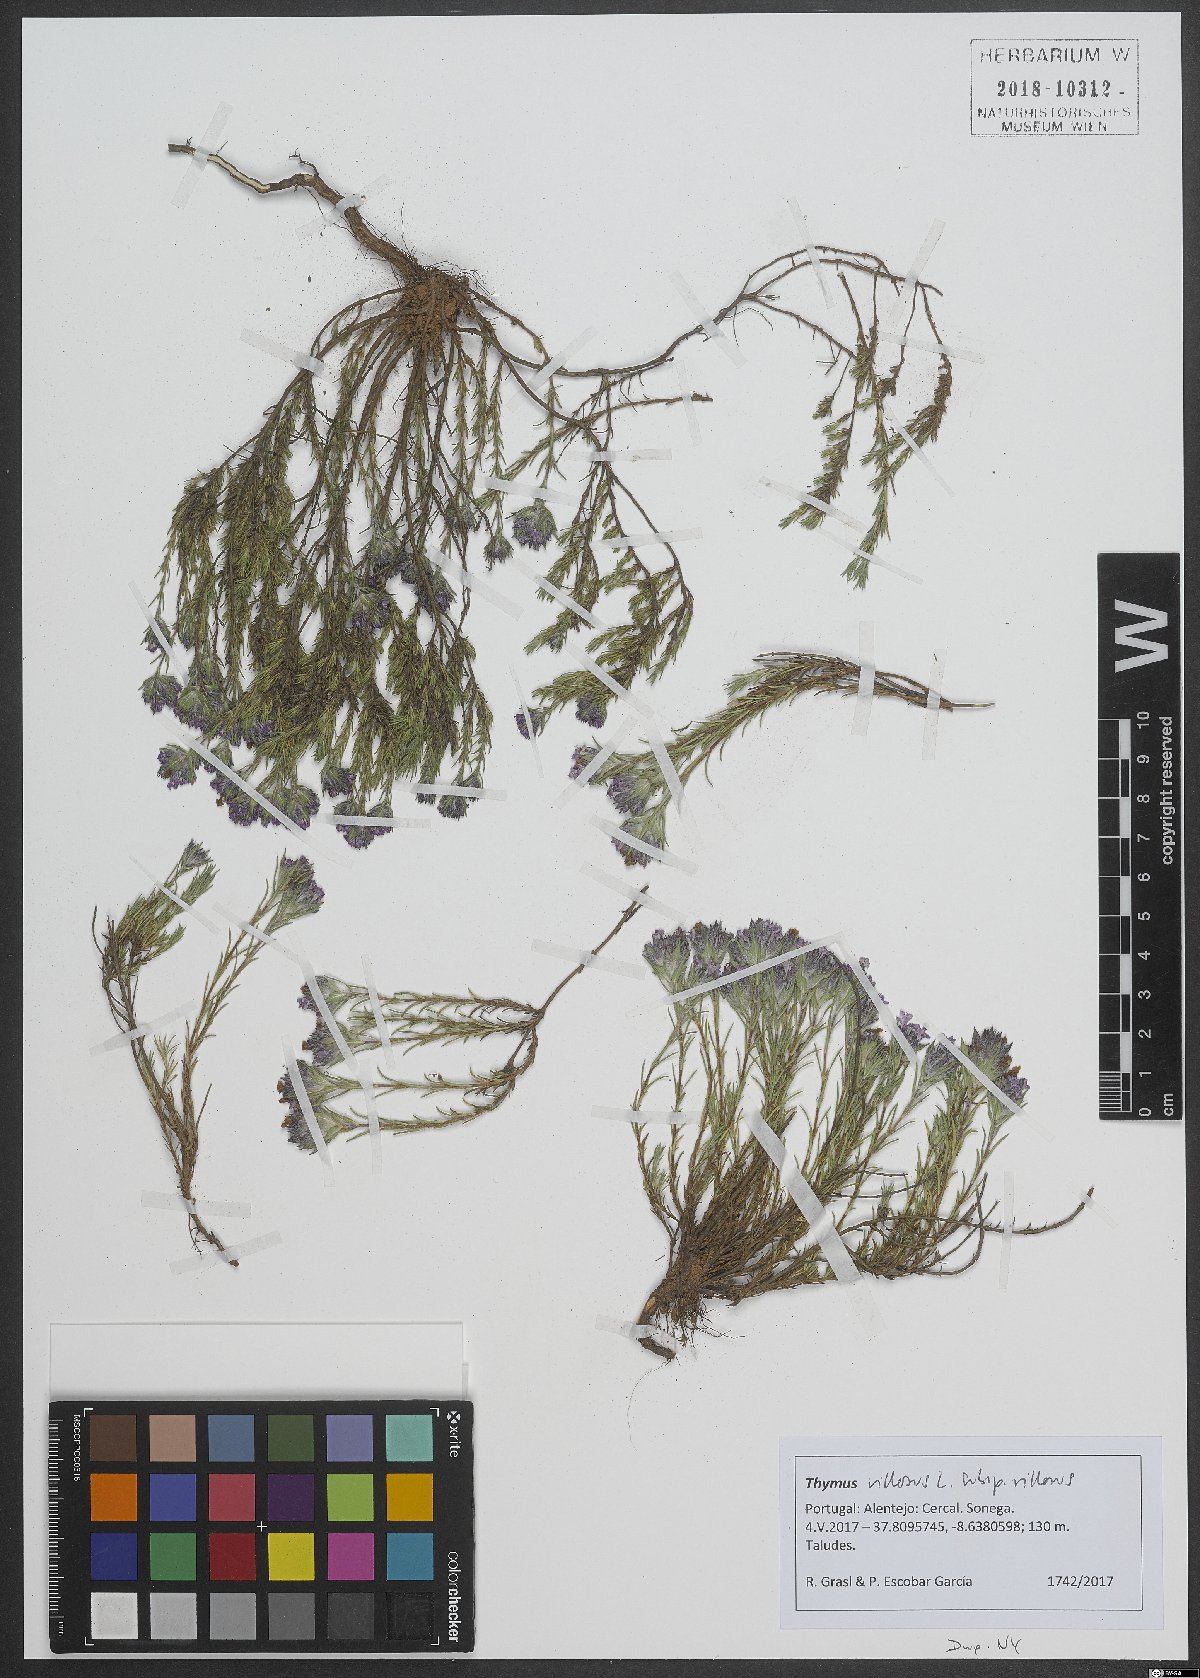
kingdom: Plantae
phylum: Tracheophyta
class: Magnoliopsida
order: Lamiales
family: Lamiaceae
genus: Thymus
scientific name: Thymus villosus
